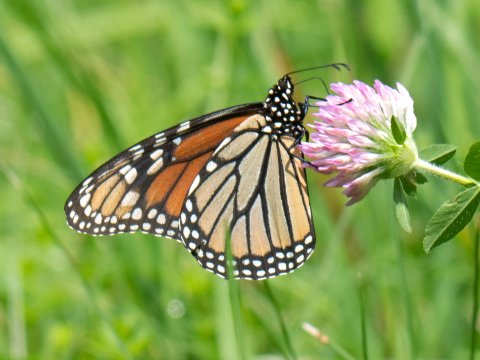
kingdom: Animalia
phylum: Arthropoda
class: Insecta
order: Lepidoptera
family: Nymphalidae
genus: Danaus
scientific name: Danaus plexippus
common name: Monarch
